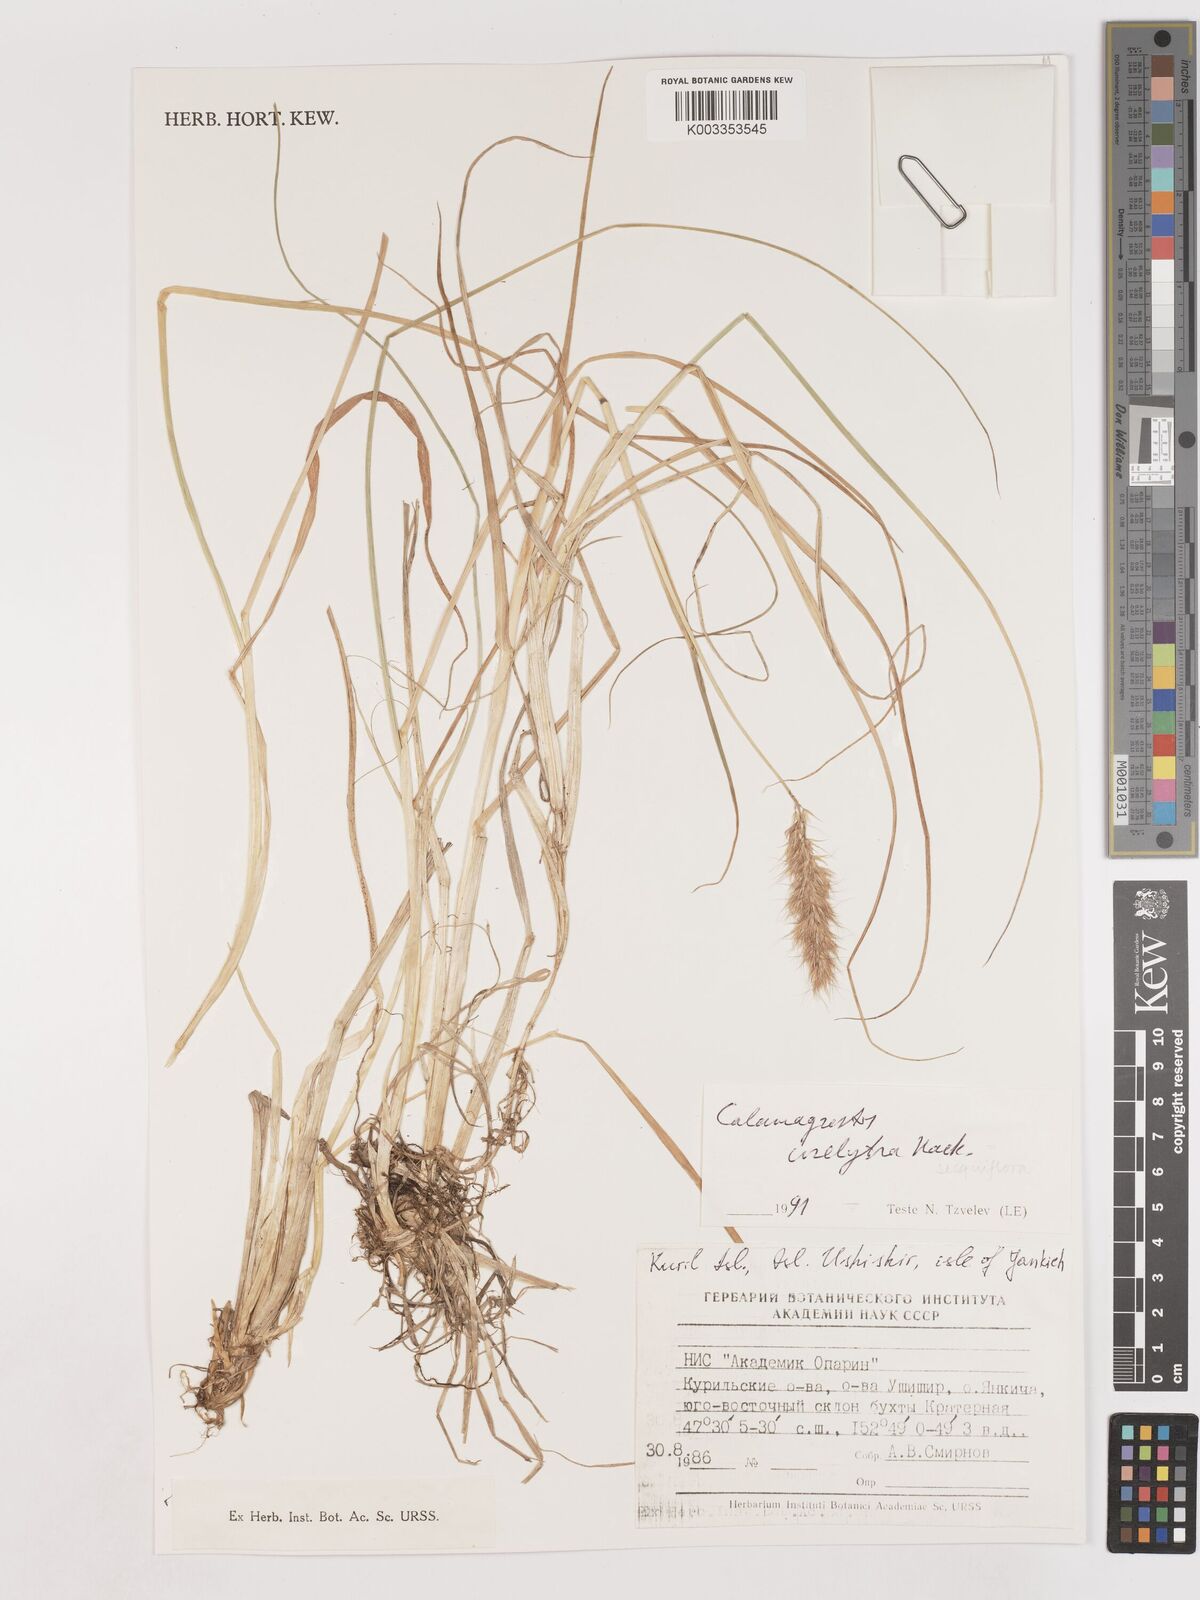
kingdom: Plantae
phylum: Tracheophyta
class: Liliopsida
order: Poales
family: Poaceae
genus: Podagrostis
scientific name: Podagrostis sesquiflora
